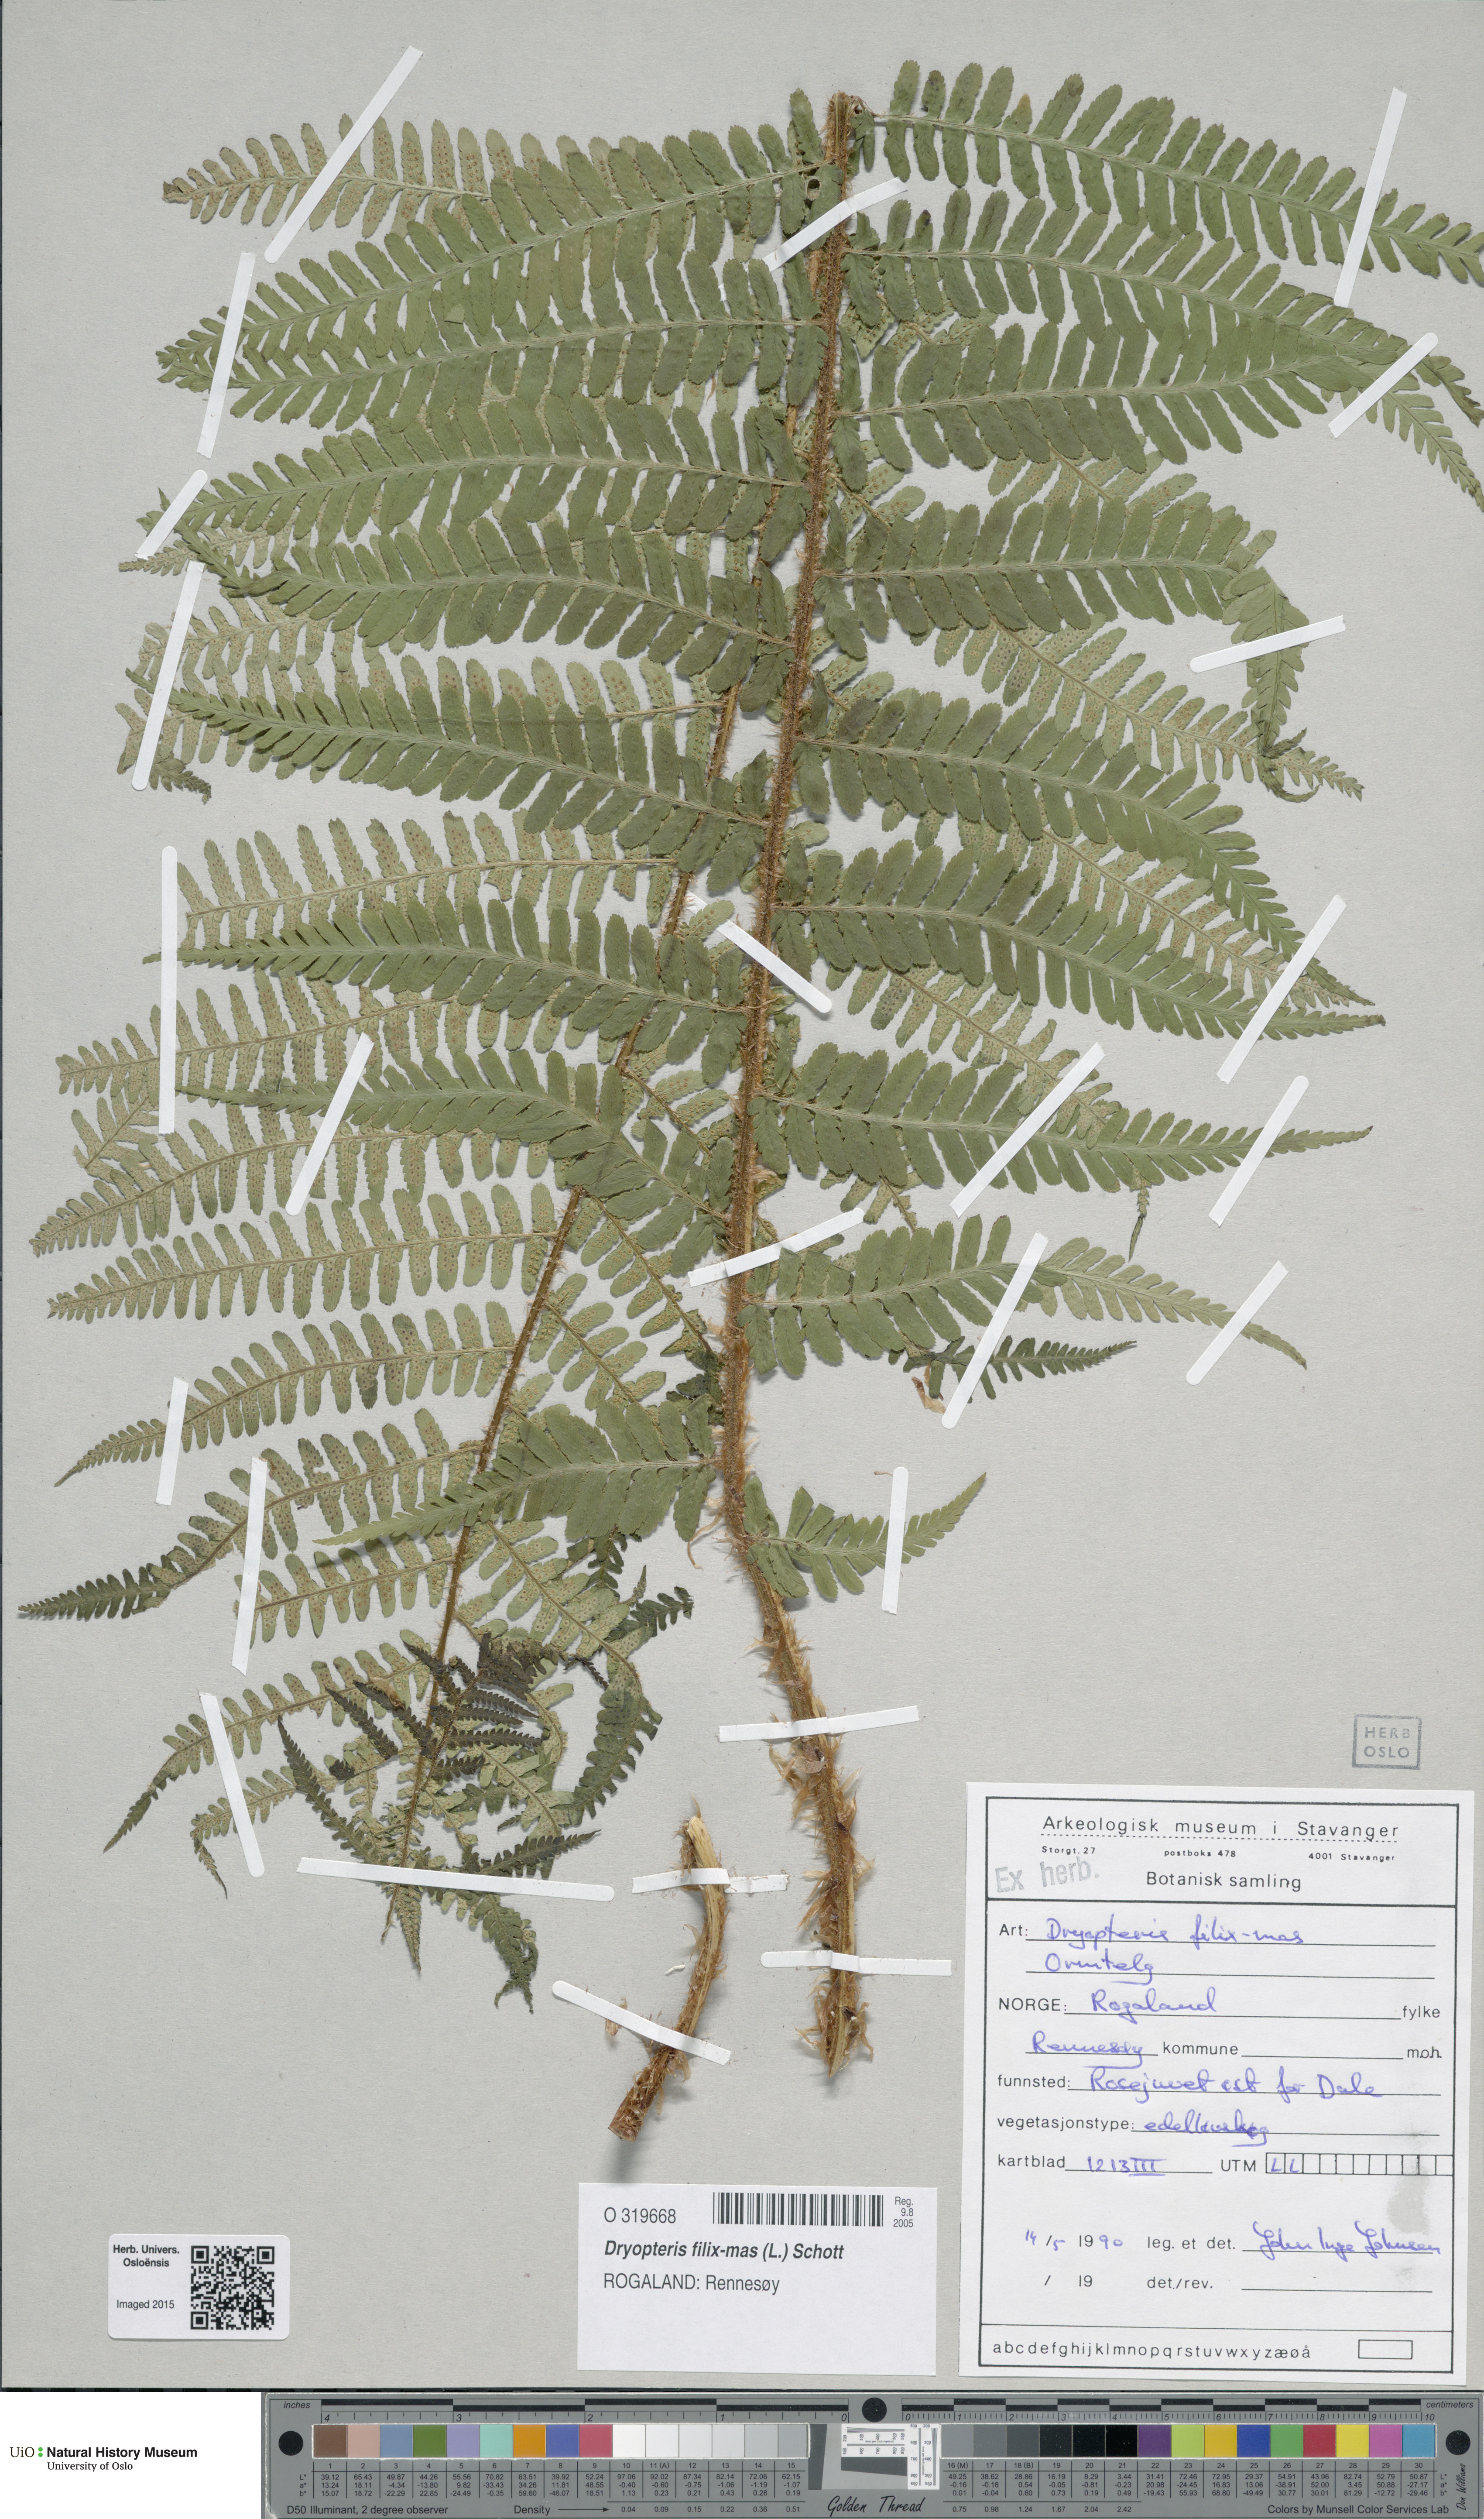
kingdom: Plantae
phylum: Tracheophyta
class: Polypodiopsida
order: Polypodiales
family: Dryopteridaceae
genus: Dryopteris
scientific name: Dryopteris filix-mas
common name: Male fern
